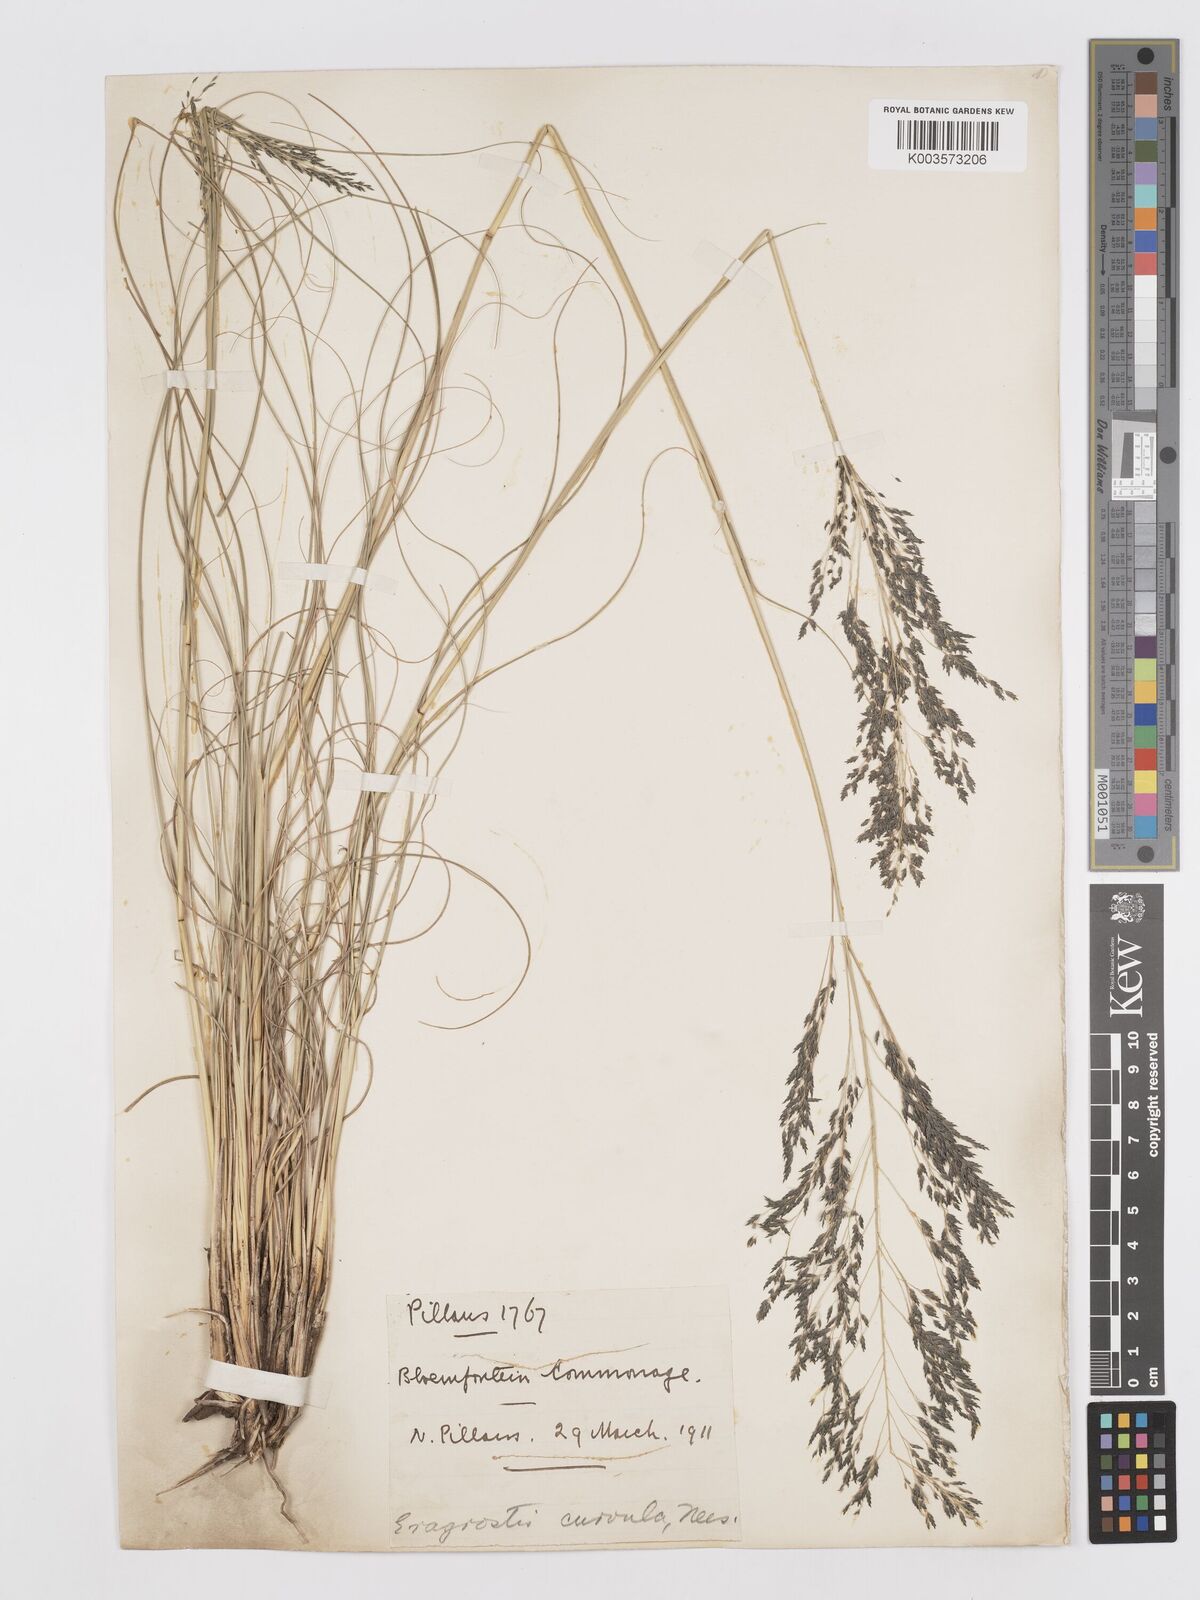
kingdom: Plantae
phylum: Tracheophyta
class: Liliopsida
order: Poales
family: Poaceae
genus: Eragrostis
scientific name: Eragrostis curvula
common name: African love-grass
